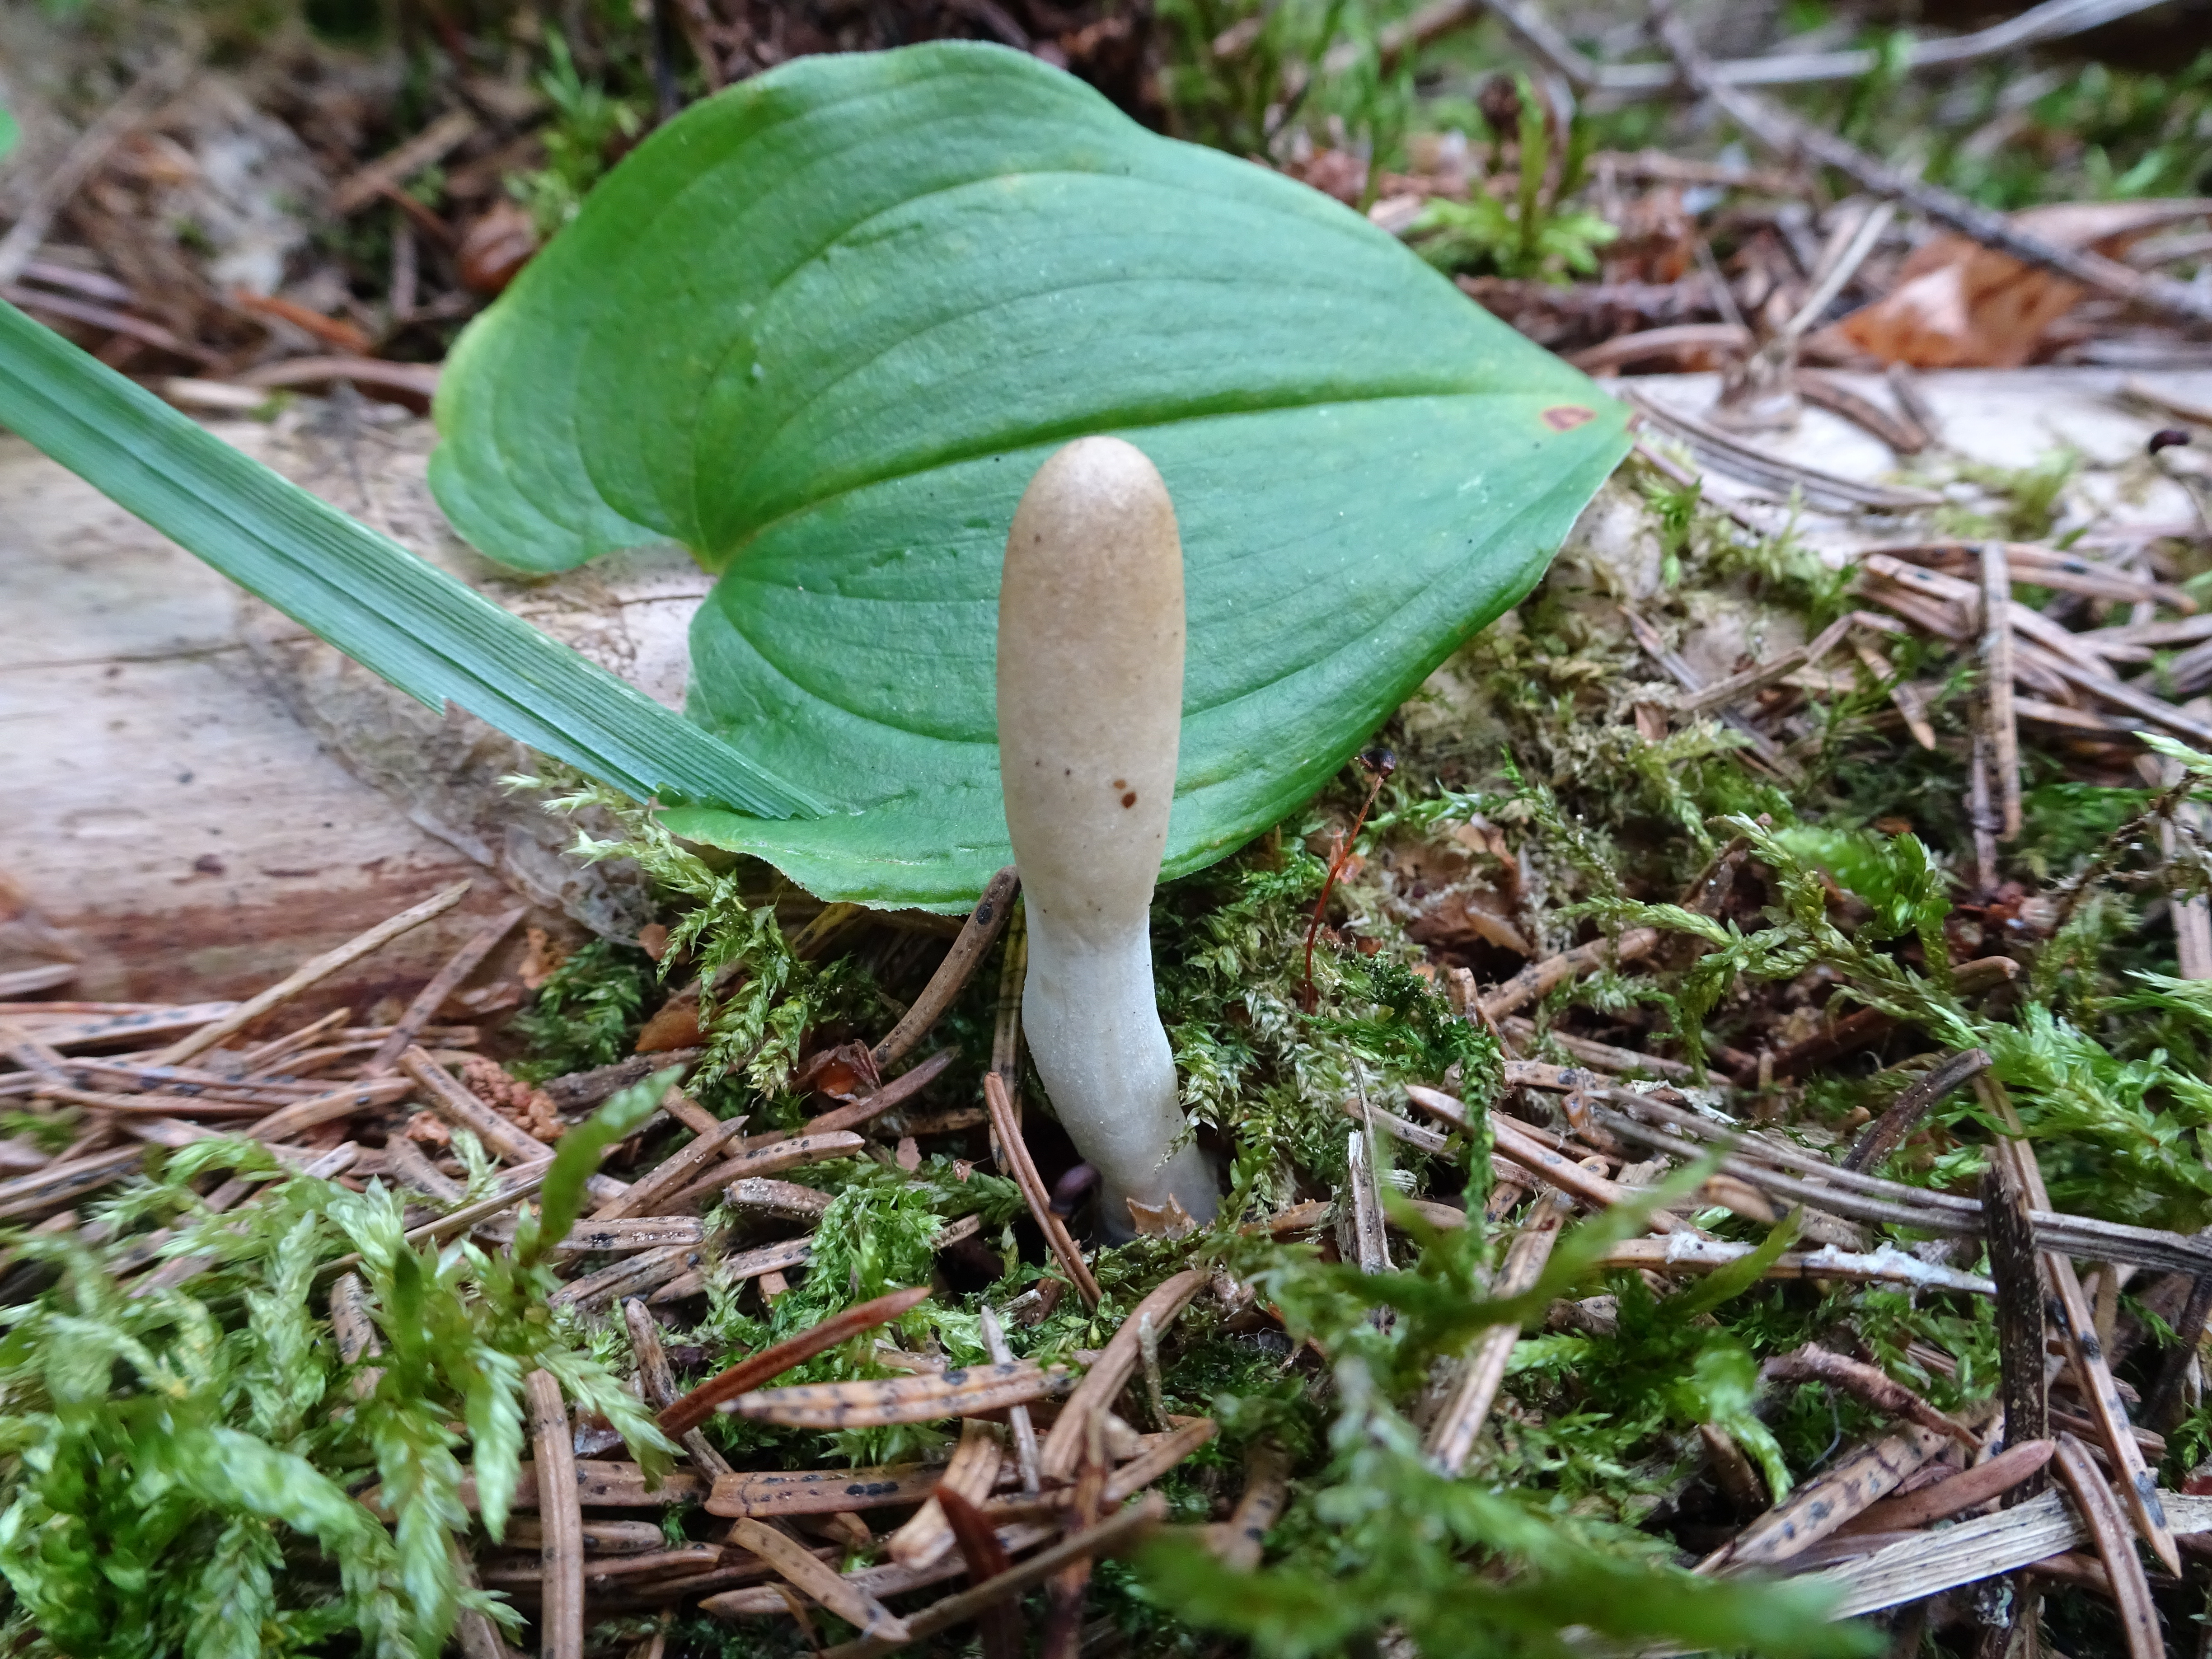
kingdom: Fungi
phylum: Ascomycota
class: Sordariomycetes
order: Hypocreales
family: Hypocreaceae
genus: Trichoderma
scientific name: Trichoderma leucopus
